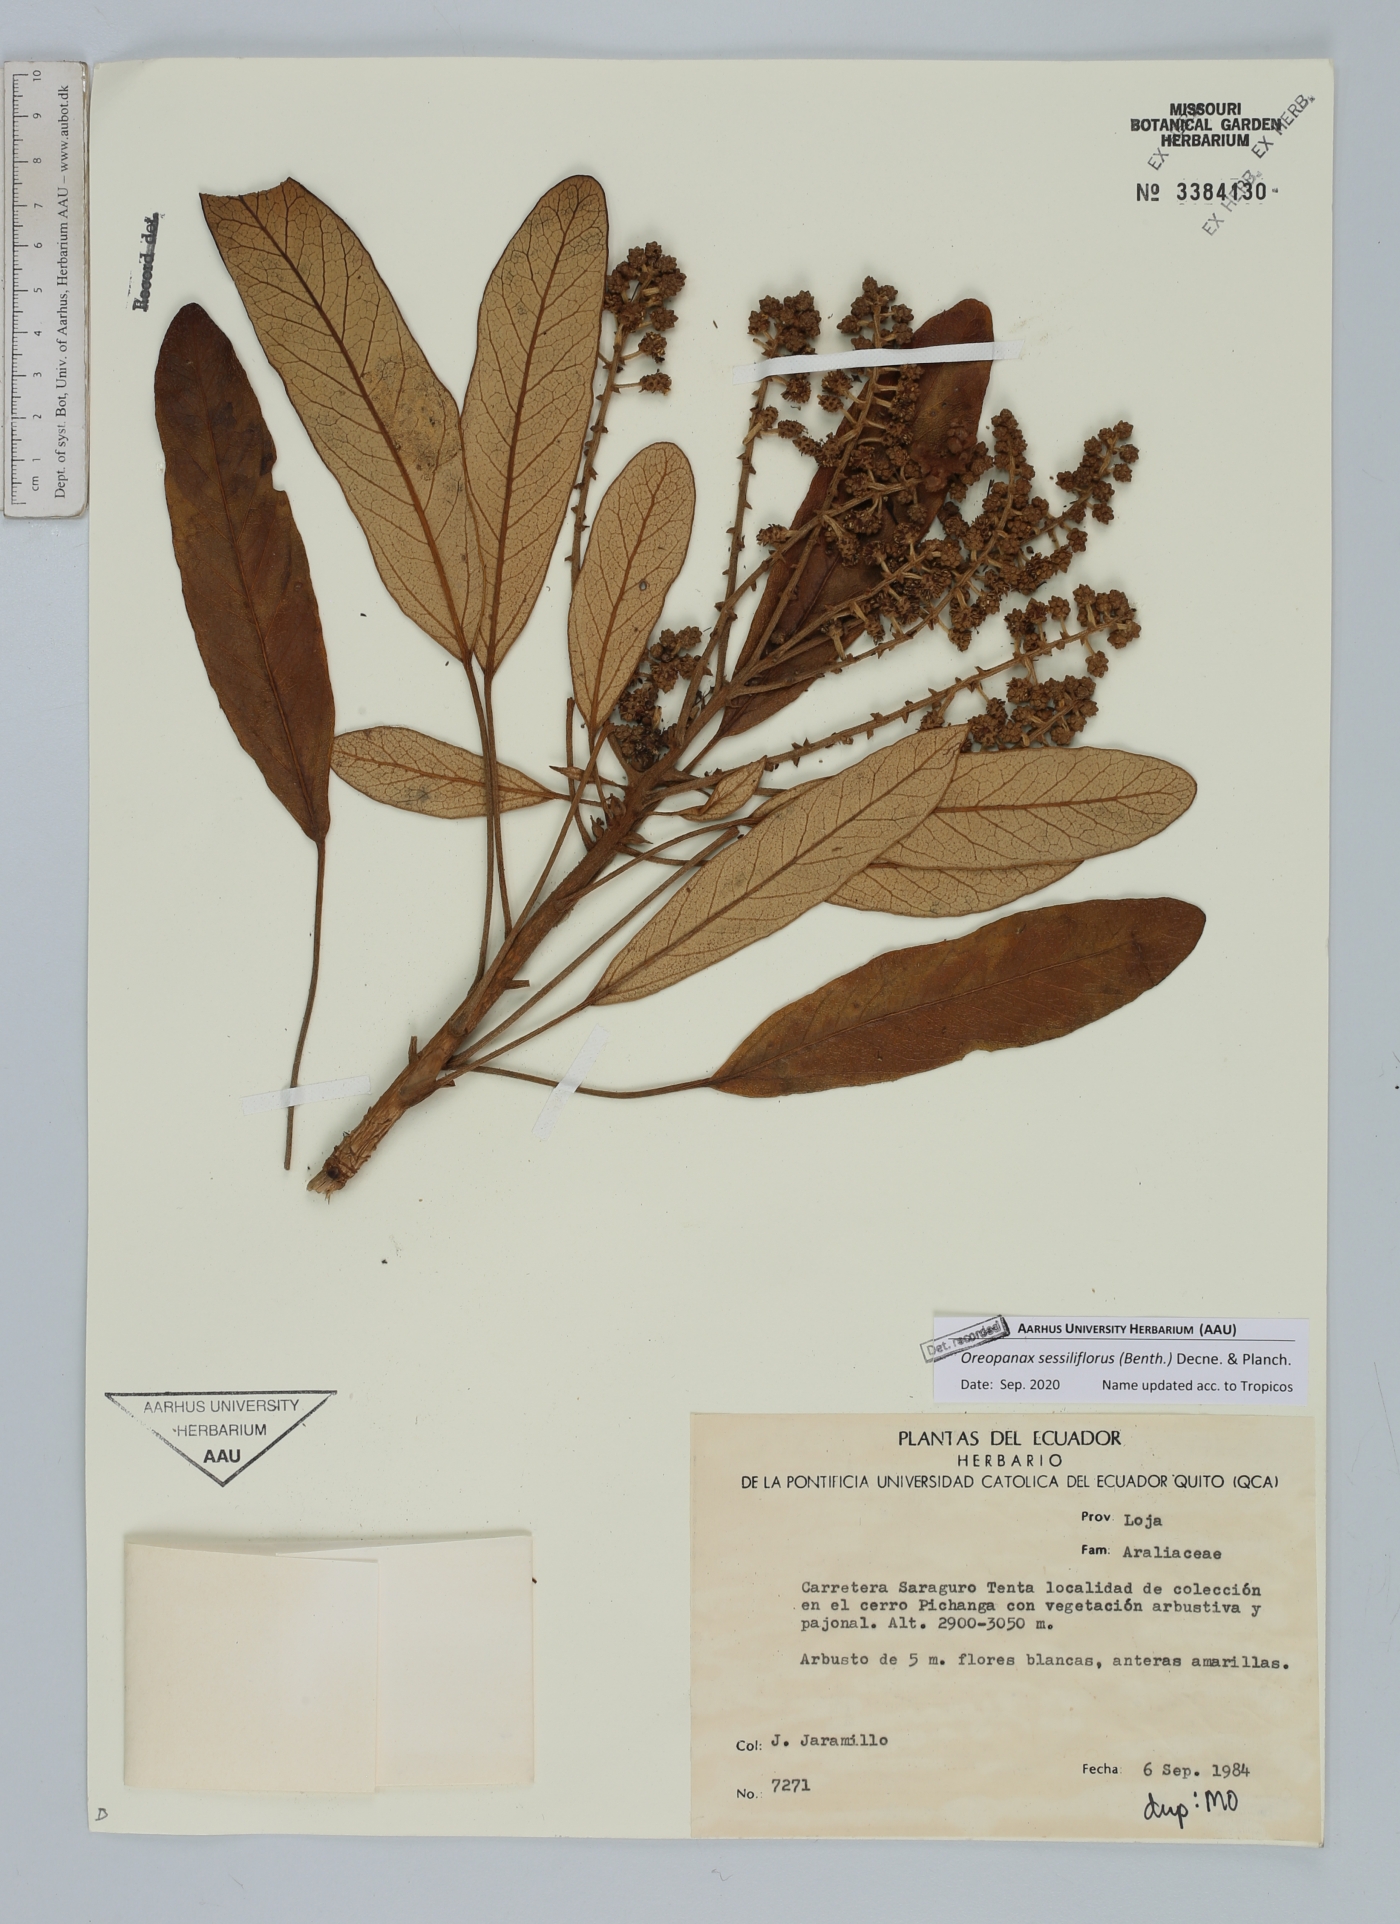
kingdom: Plantae
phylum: Tracheophyta
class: Magnoliopsida
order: Apiales
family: Araliaceae
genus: Oreopanax
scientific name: Oreopanax sessiliflorus
